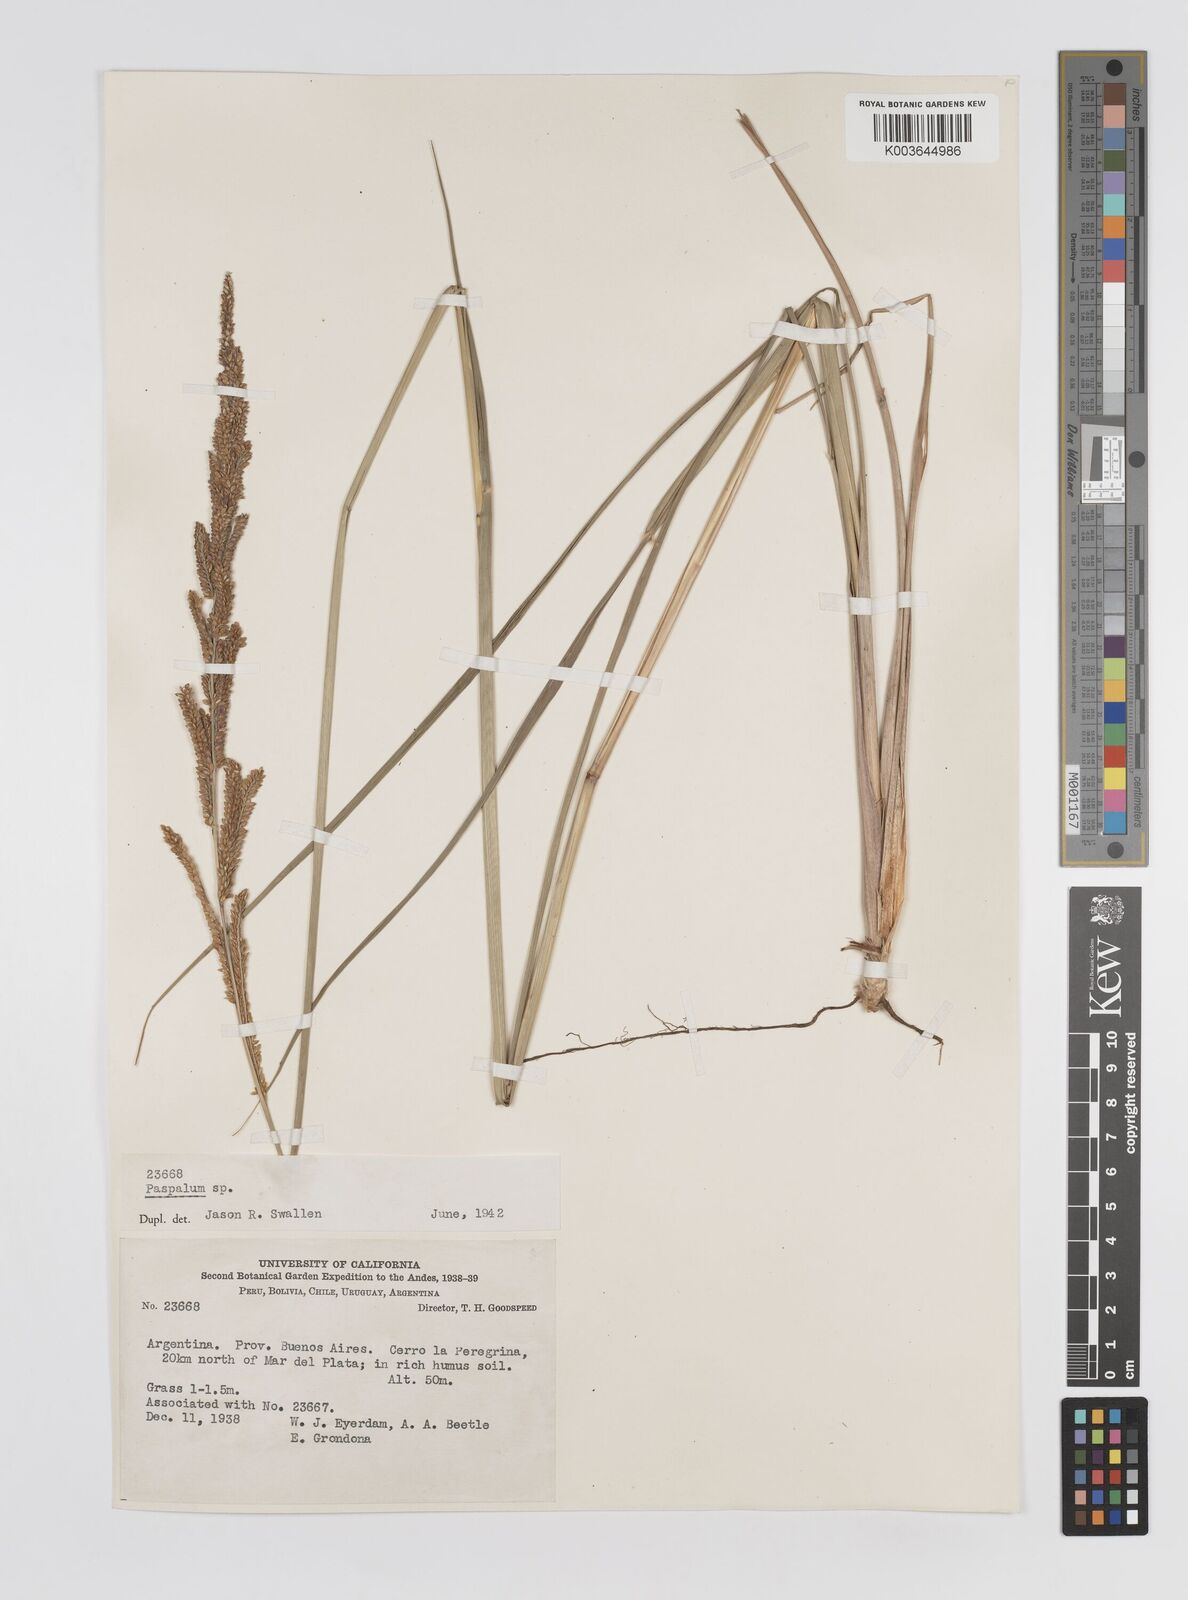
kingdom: Plantae
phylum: Tracheophyta
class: Liliopsida
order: Poales
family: Poaceae
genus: Paspalum
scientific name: Paspalum quadrifarium
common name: Tussock paspalum
